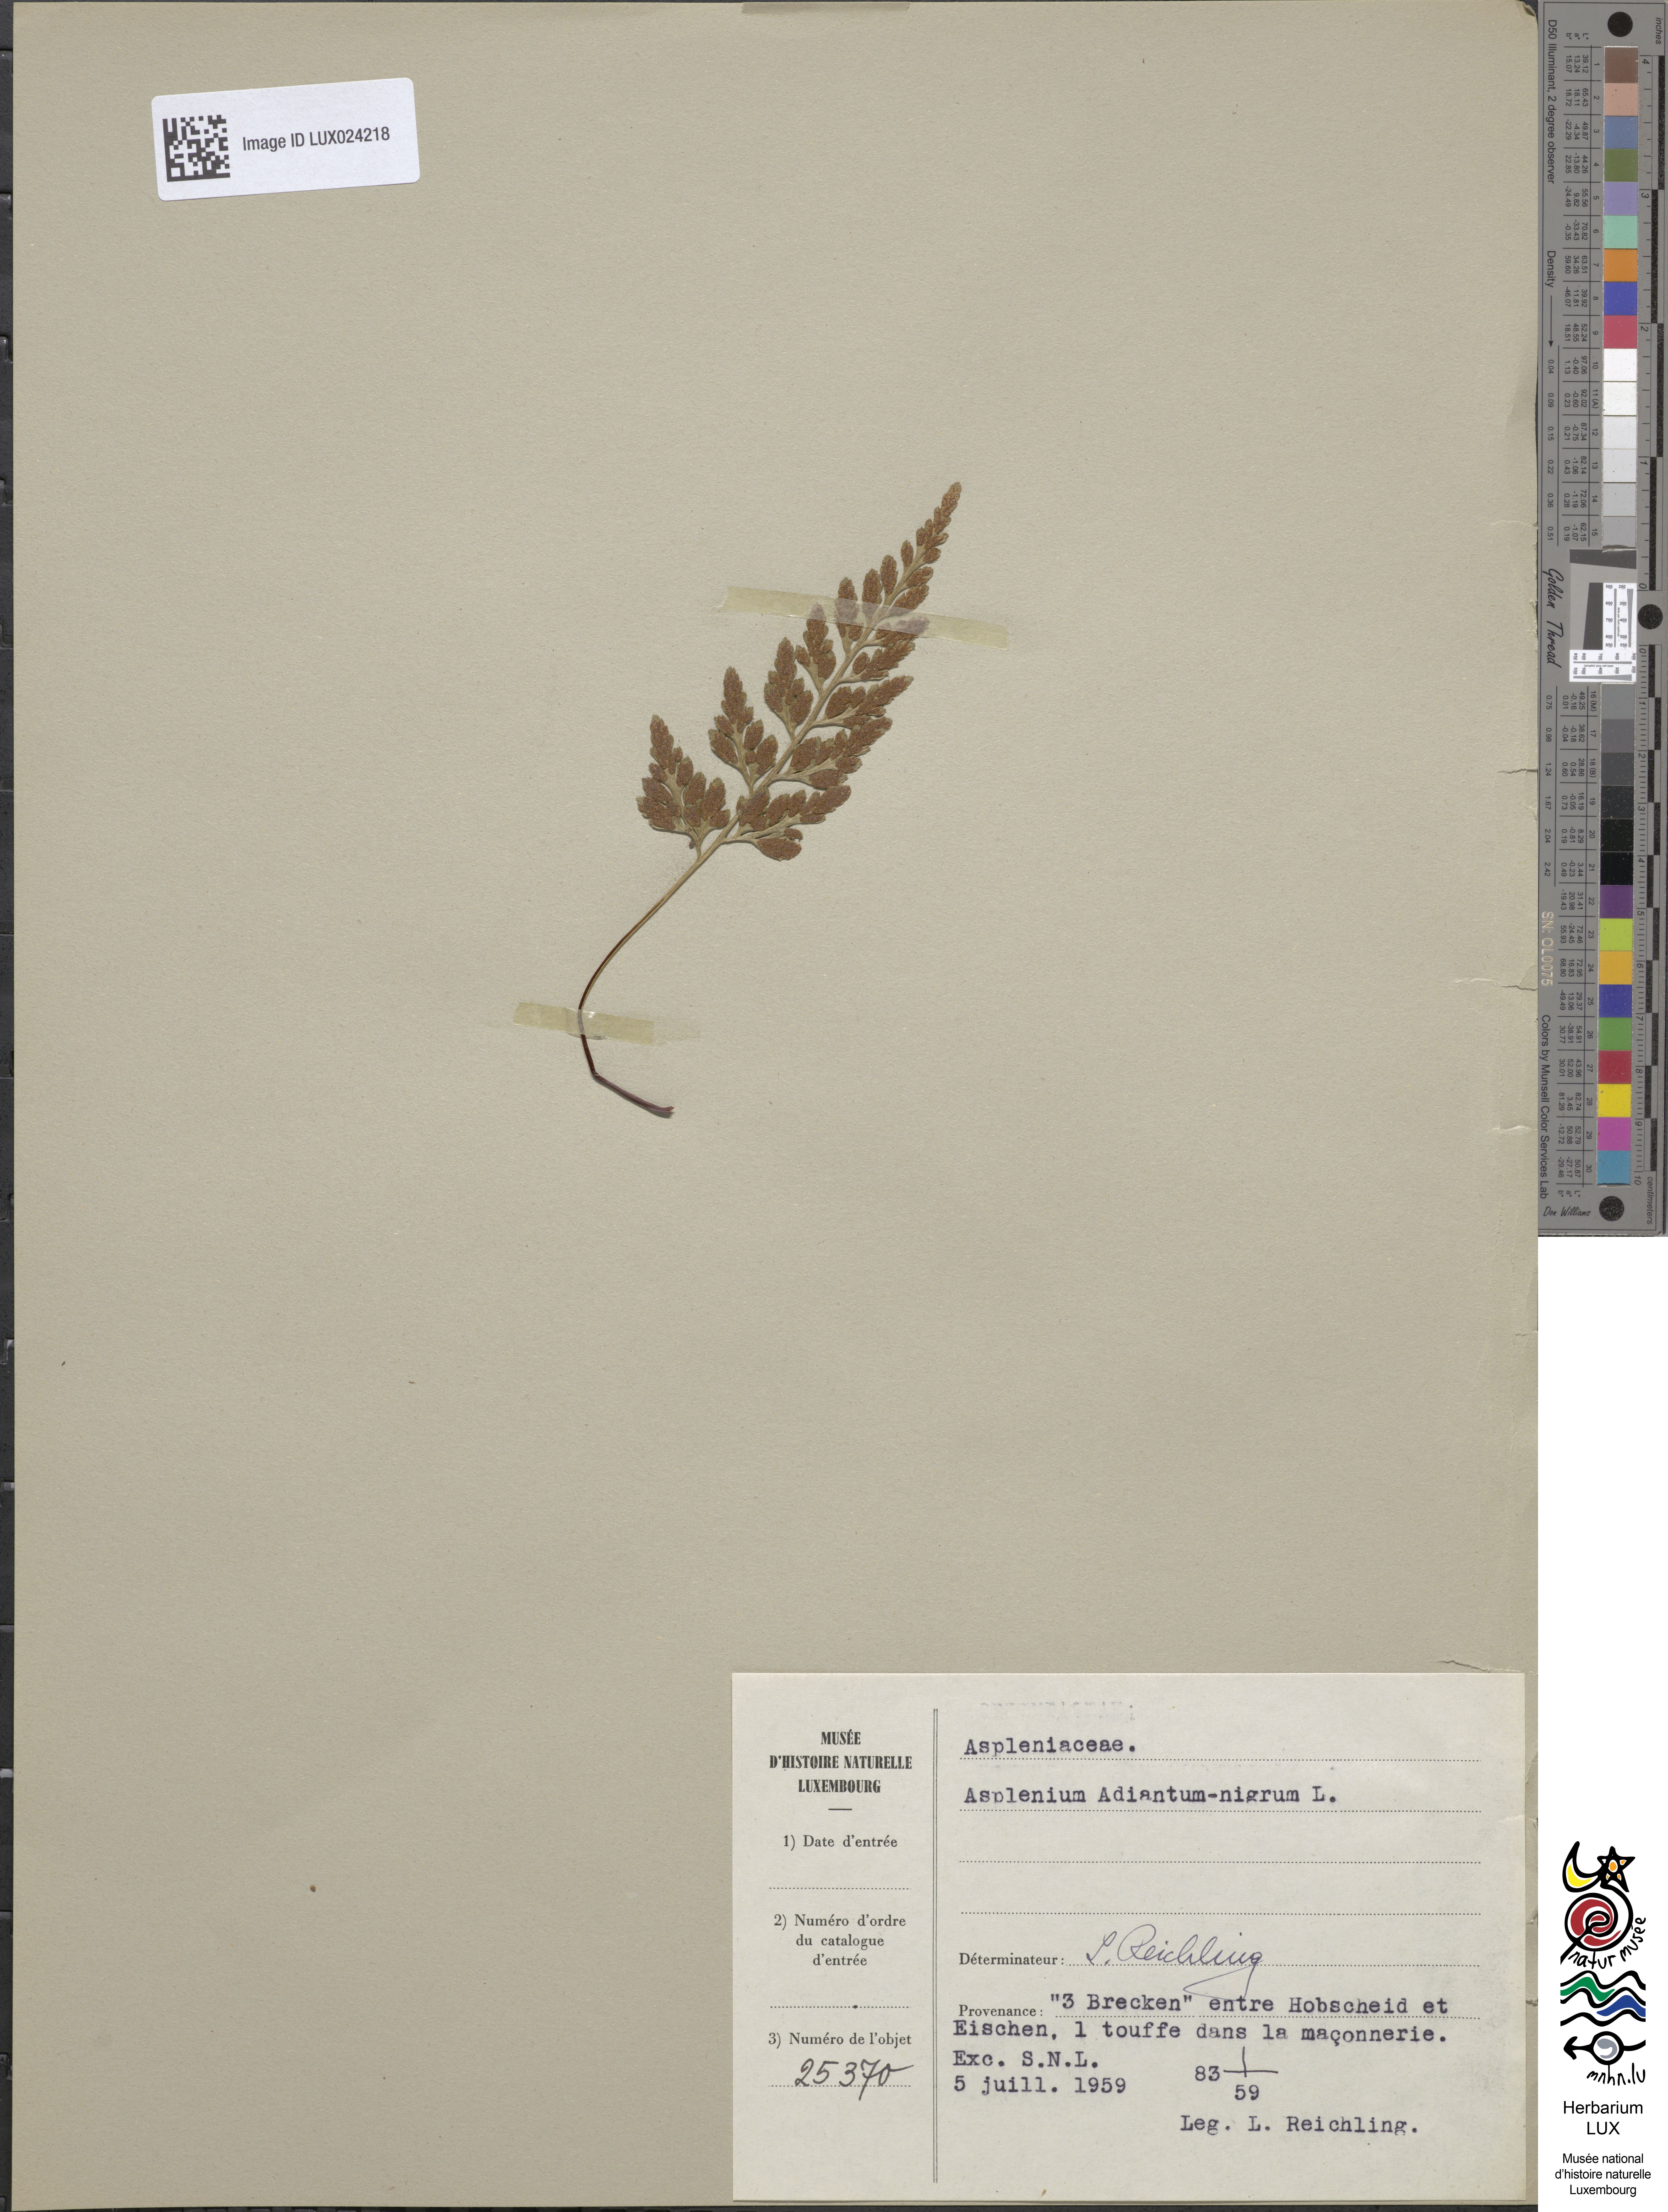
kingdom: Plantae
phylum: Tracheophyta
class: Polypodiopsida
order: Polypodiales
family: Aspleniaceae
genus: Asplenium
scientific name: Asplenium adiantum-nigrum
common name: Black spleenwort
